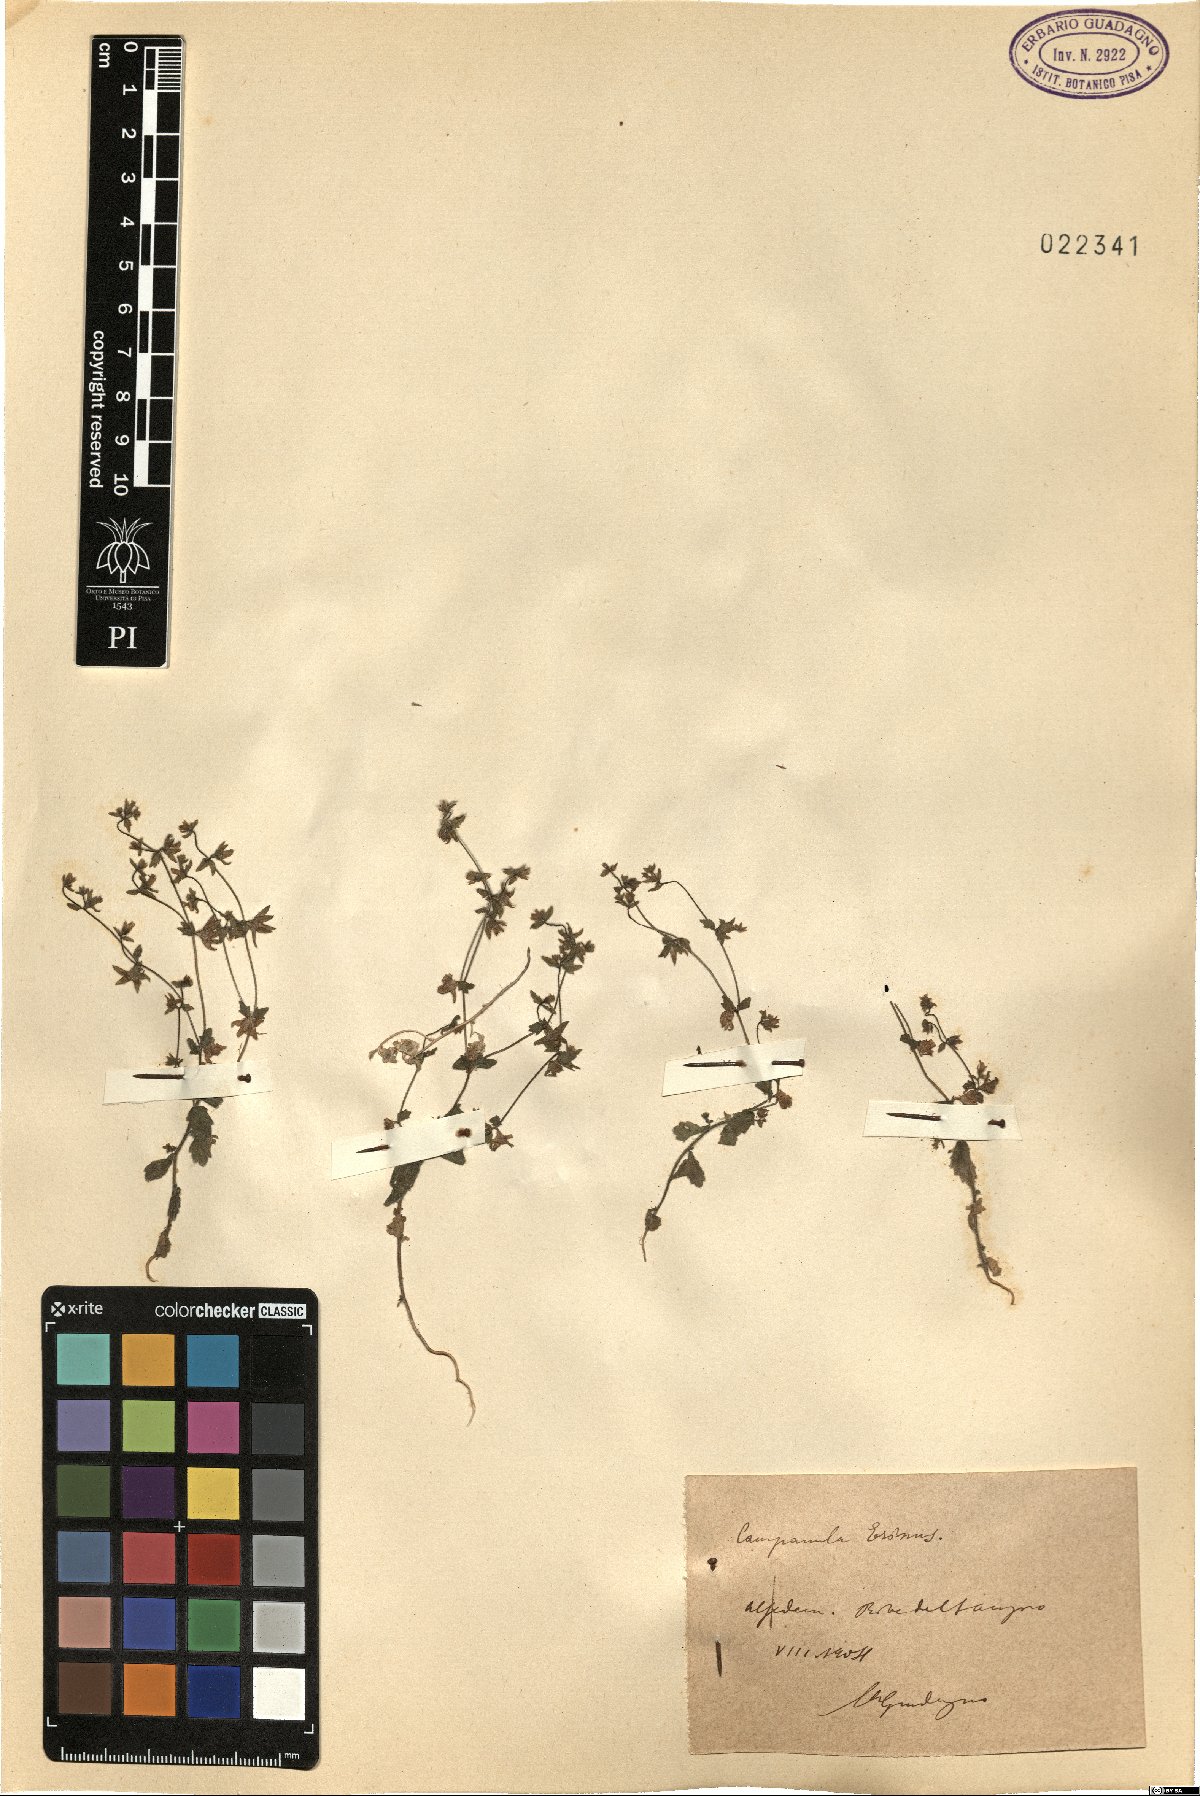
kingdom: Plantae
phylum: Tracheophyta
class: Magnoliopsida
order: Asterales
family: Campanulaceae
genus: Campanula
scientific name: Campanula erinus
